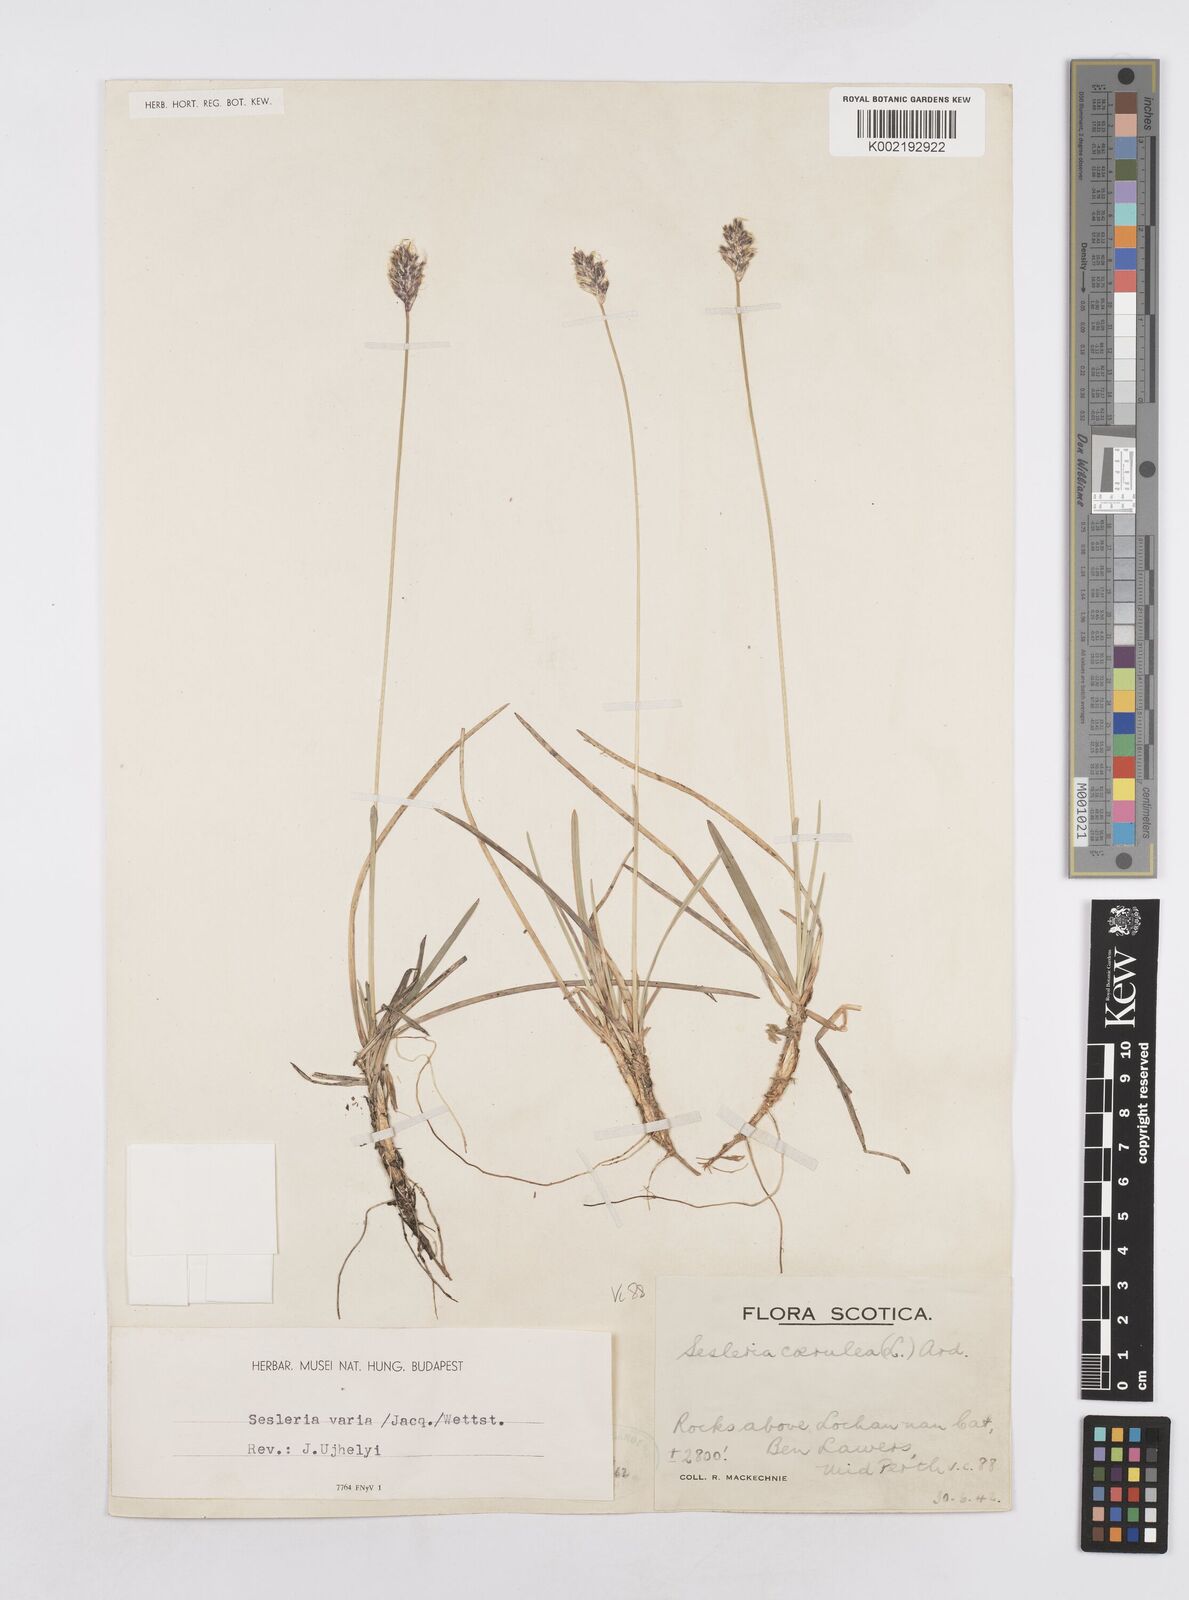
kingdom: Plantae
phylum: Tracheophyta
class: Liliopsida
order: Poales
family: Poaceae
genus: Sesleria
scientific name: Sesleria caerulea
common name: Blue moor-grass
